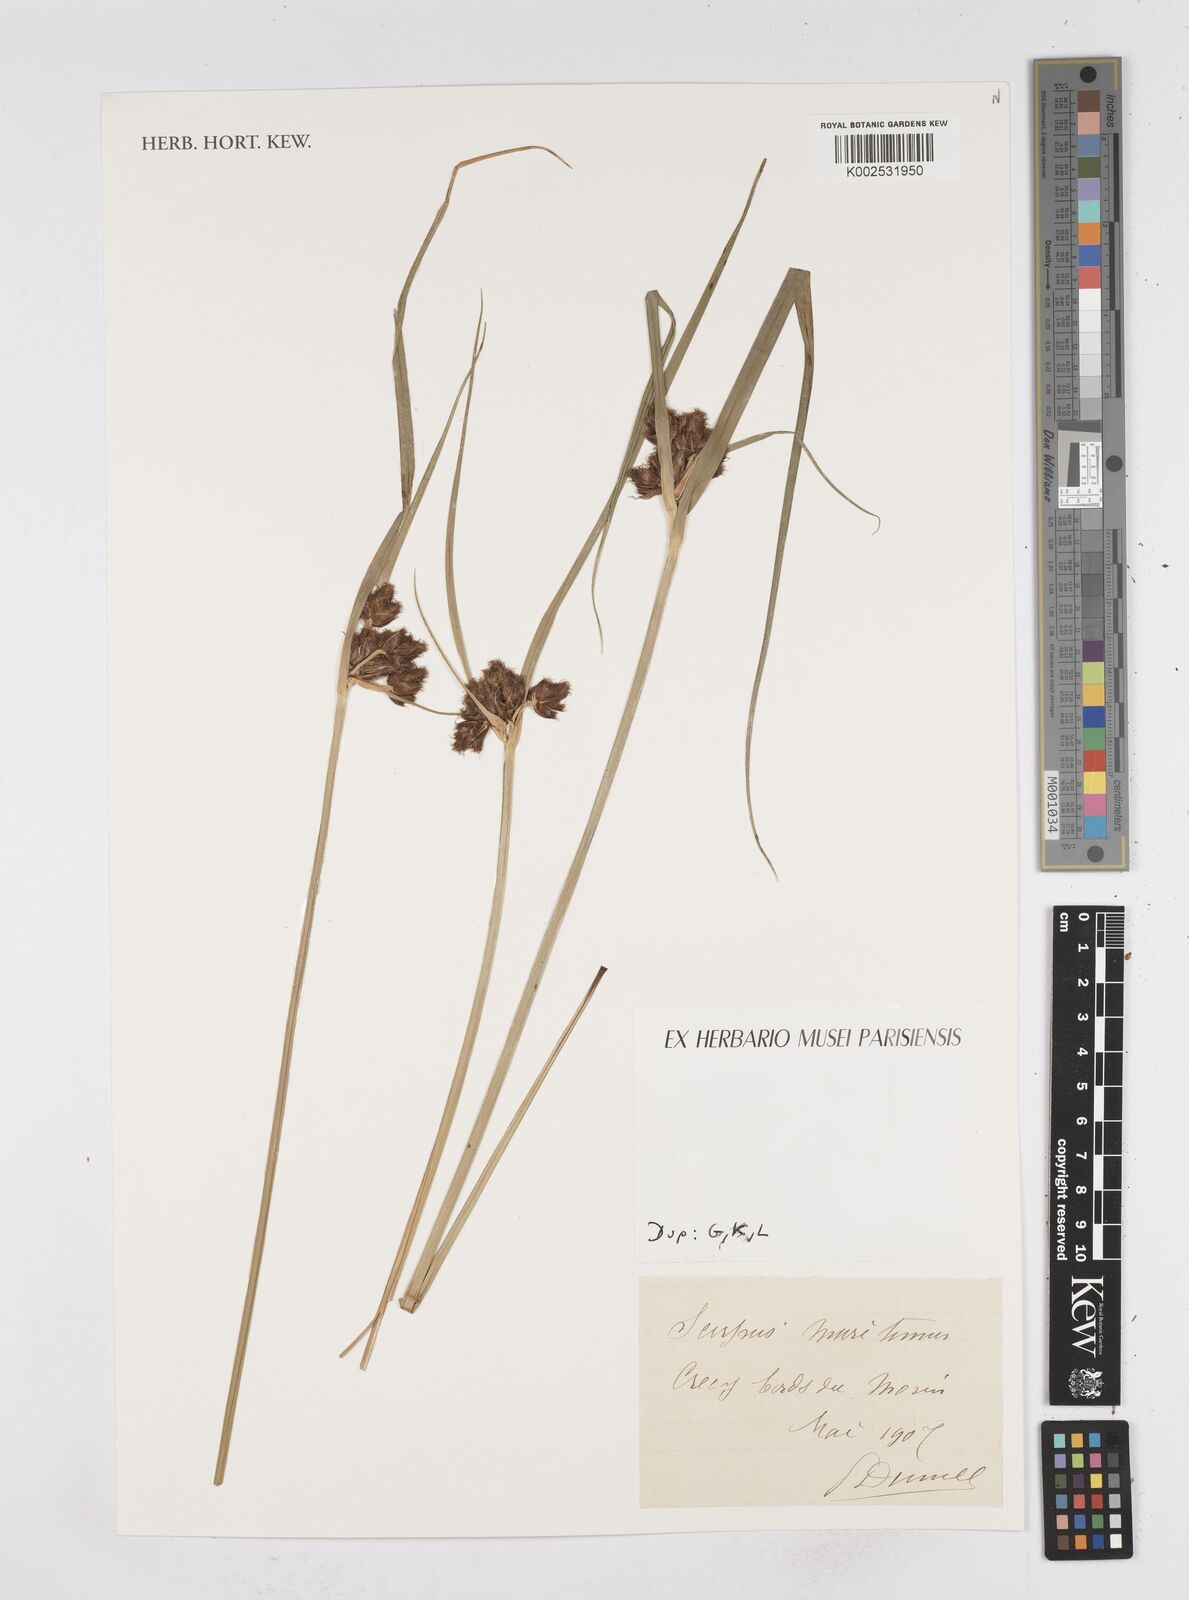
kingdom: Plantae
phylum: Tracheophyta
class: Liliopsida
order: Poales
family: Cyperaceae
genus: Bolboschoenus
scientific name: Bolboschoenus maritimus
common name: Sea club-rush
